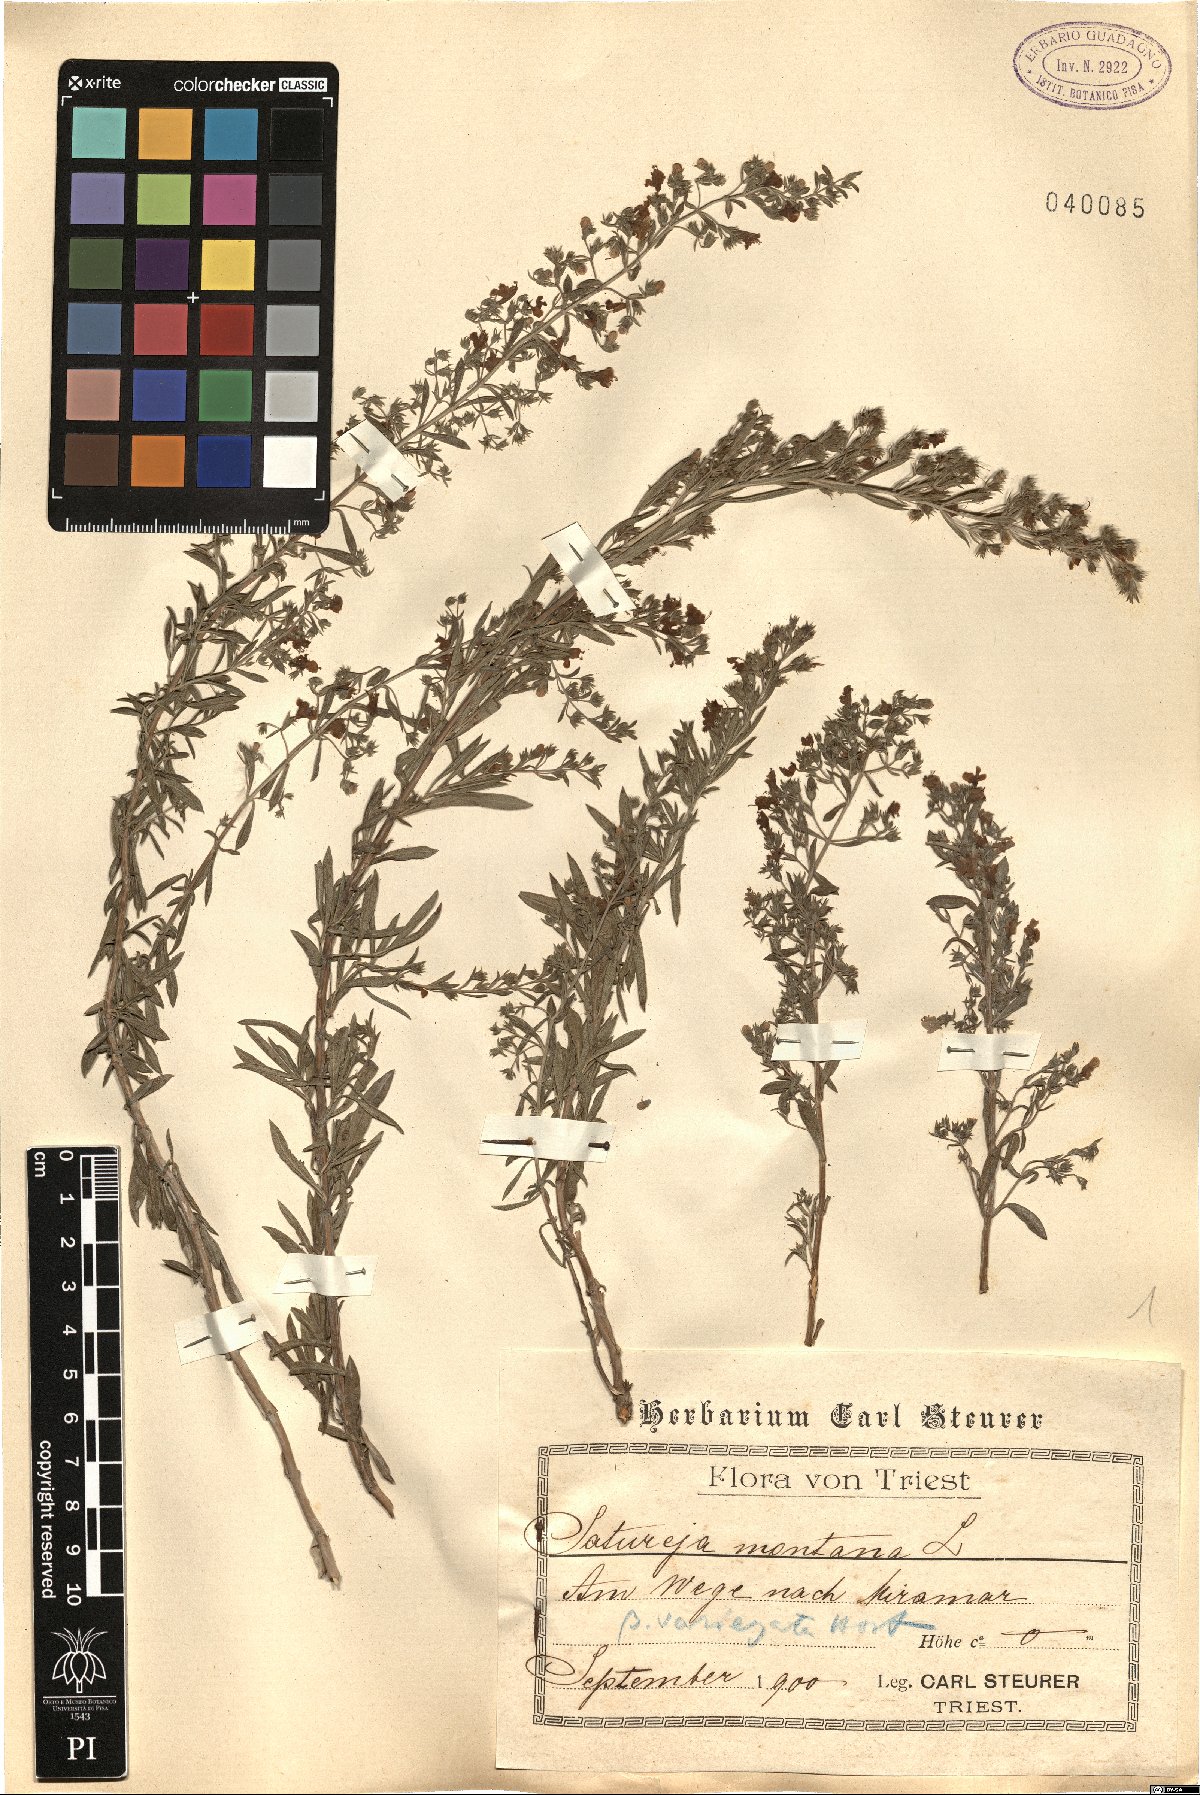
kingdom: Plantae
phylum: Tracheophyta
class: Magnoliopsida
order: Lamiales
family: Lamiaceae
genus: Satureja
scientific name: Satureja montana
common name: Winter savory
